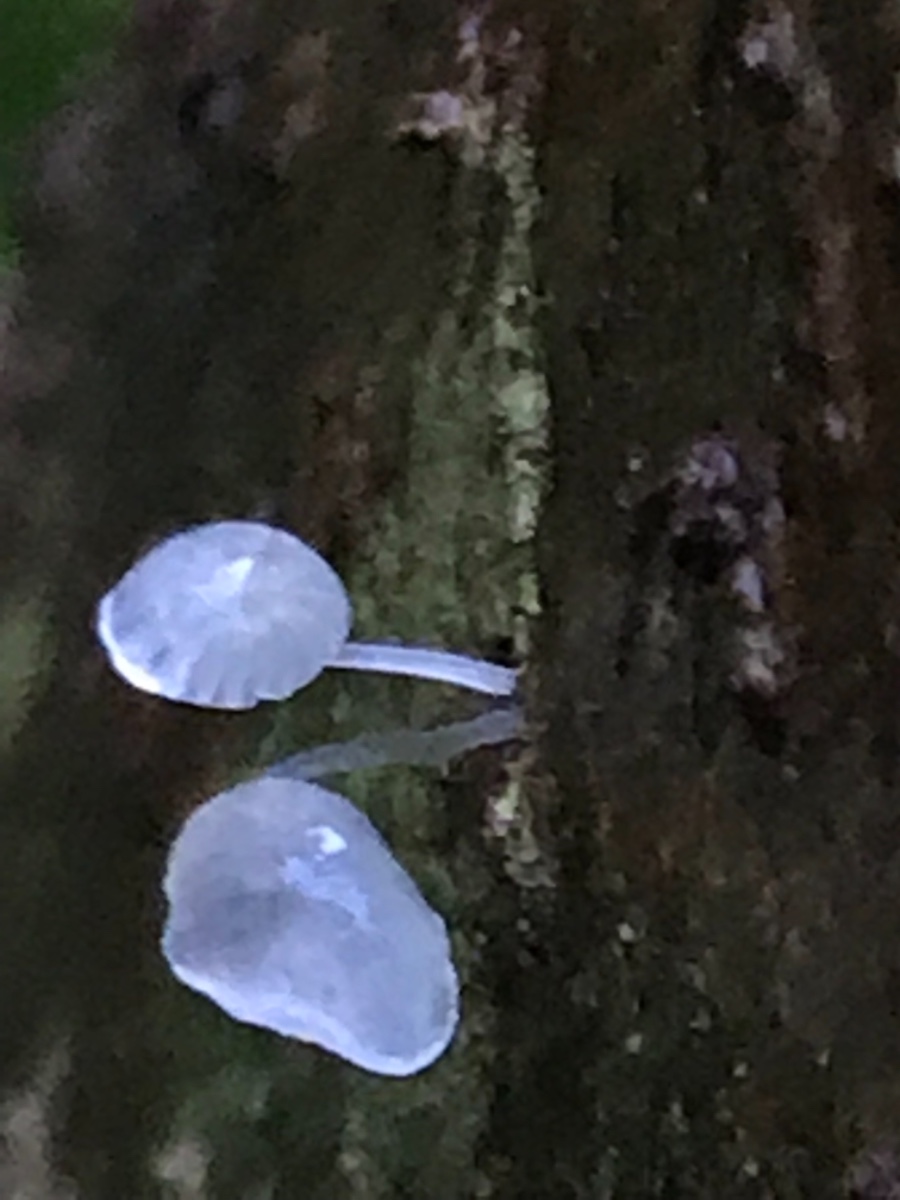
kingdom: Fungi
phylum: Basidiomycota
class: Agaricomycetes
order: Agaricales
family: Mycenaceae
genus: Mycena
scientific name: Mycena tenerrima
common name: pudret huesvamp
